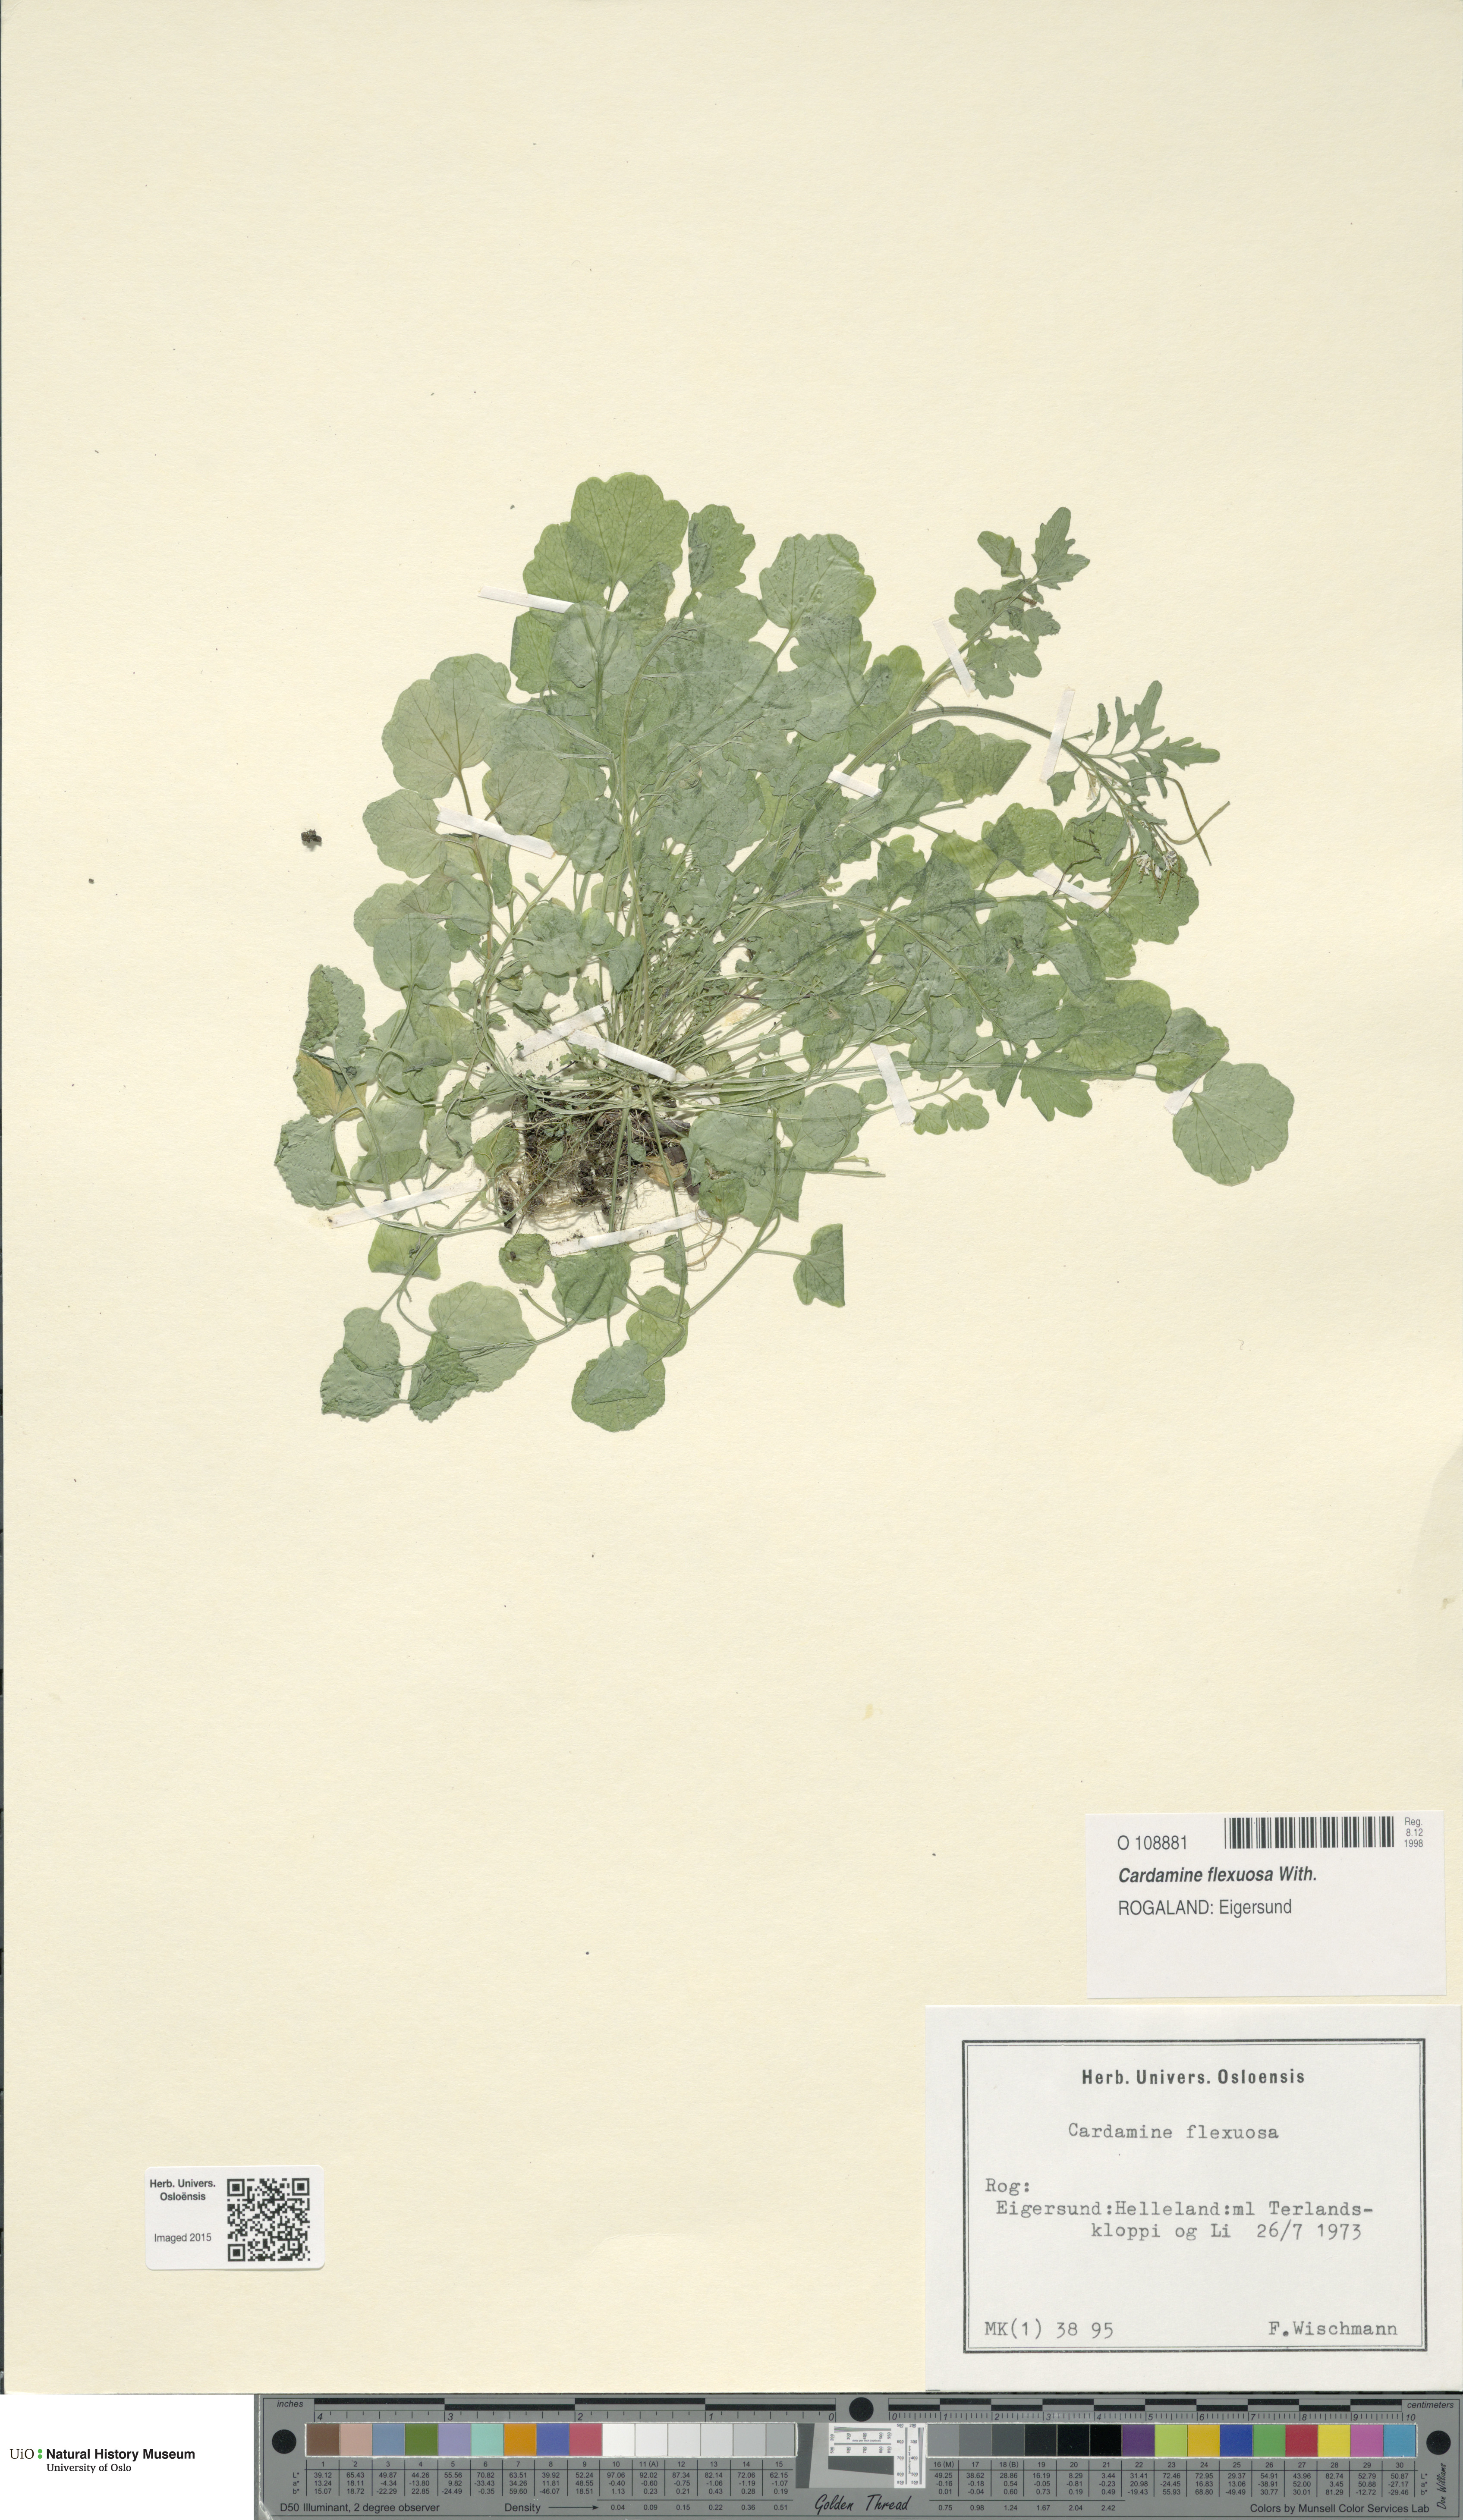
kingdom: Plantae
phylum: Tracheophyta
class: Magnoliopsida
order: Brassicales
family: Brassicaceae
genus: Cardamine
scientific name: Cardamine flexuosa
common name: Woodland bittercress
